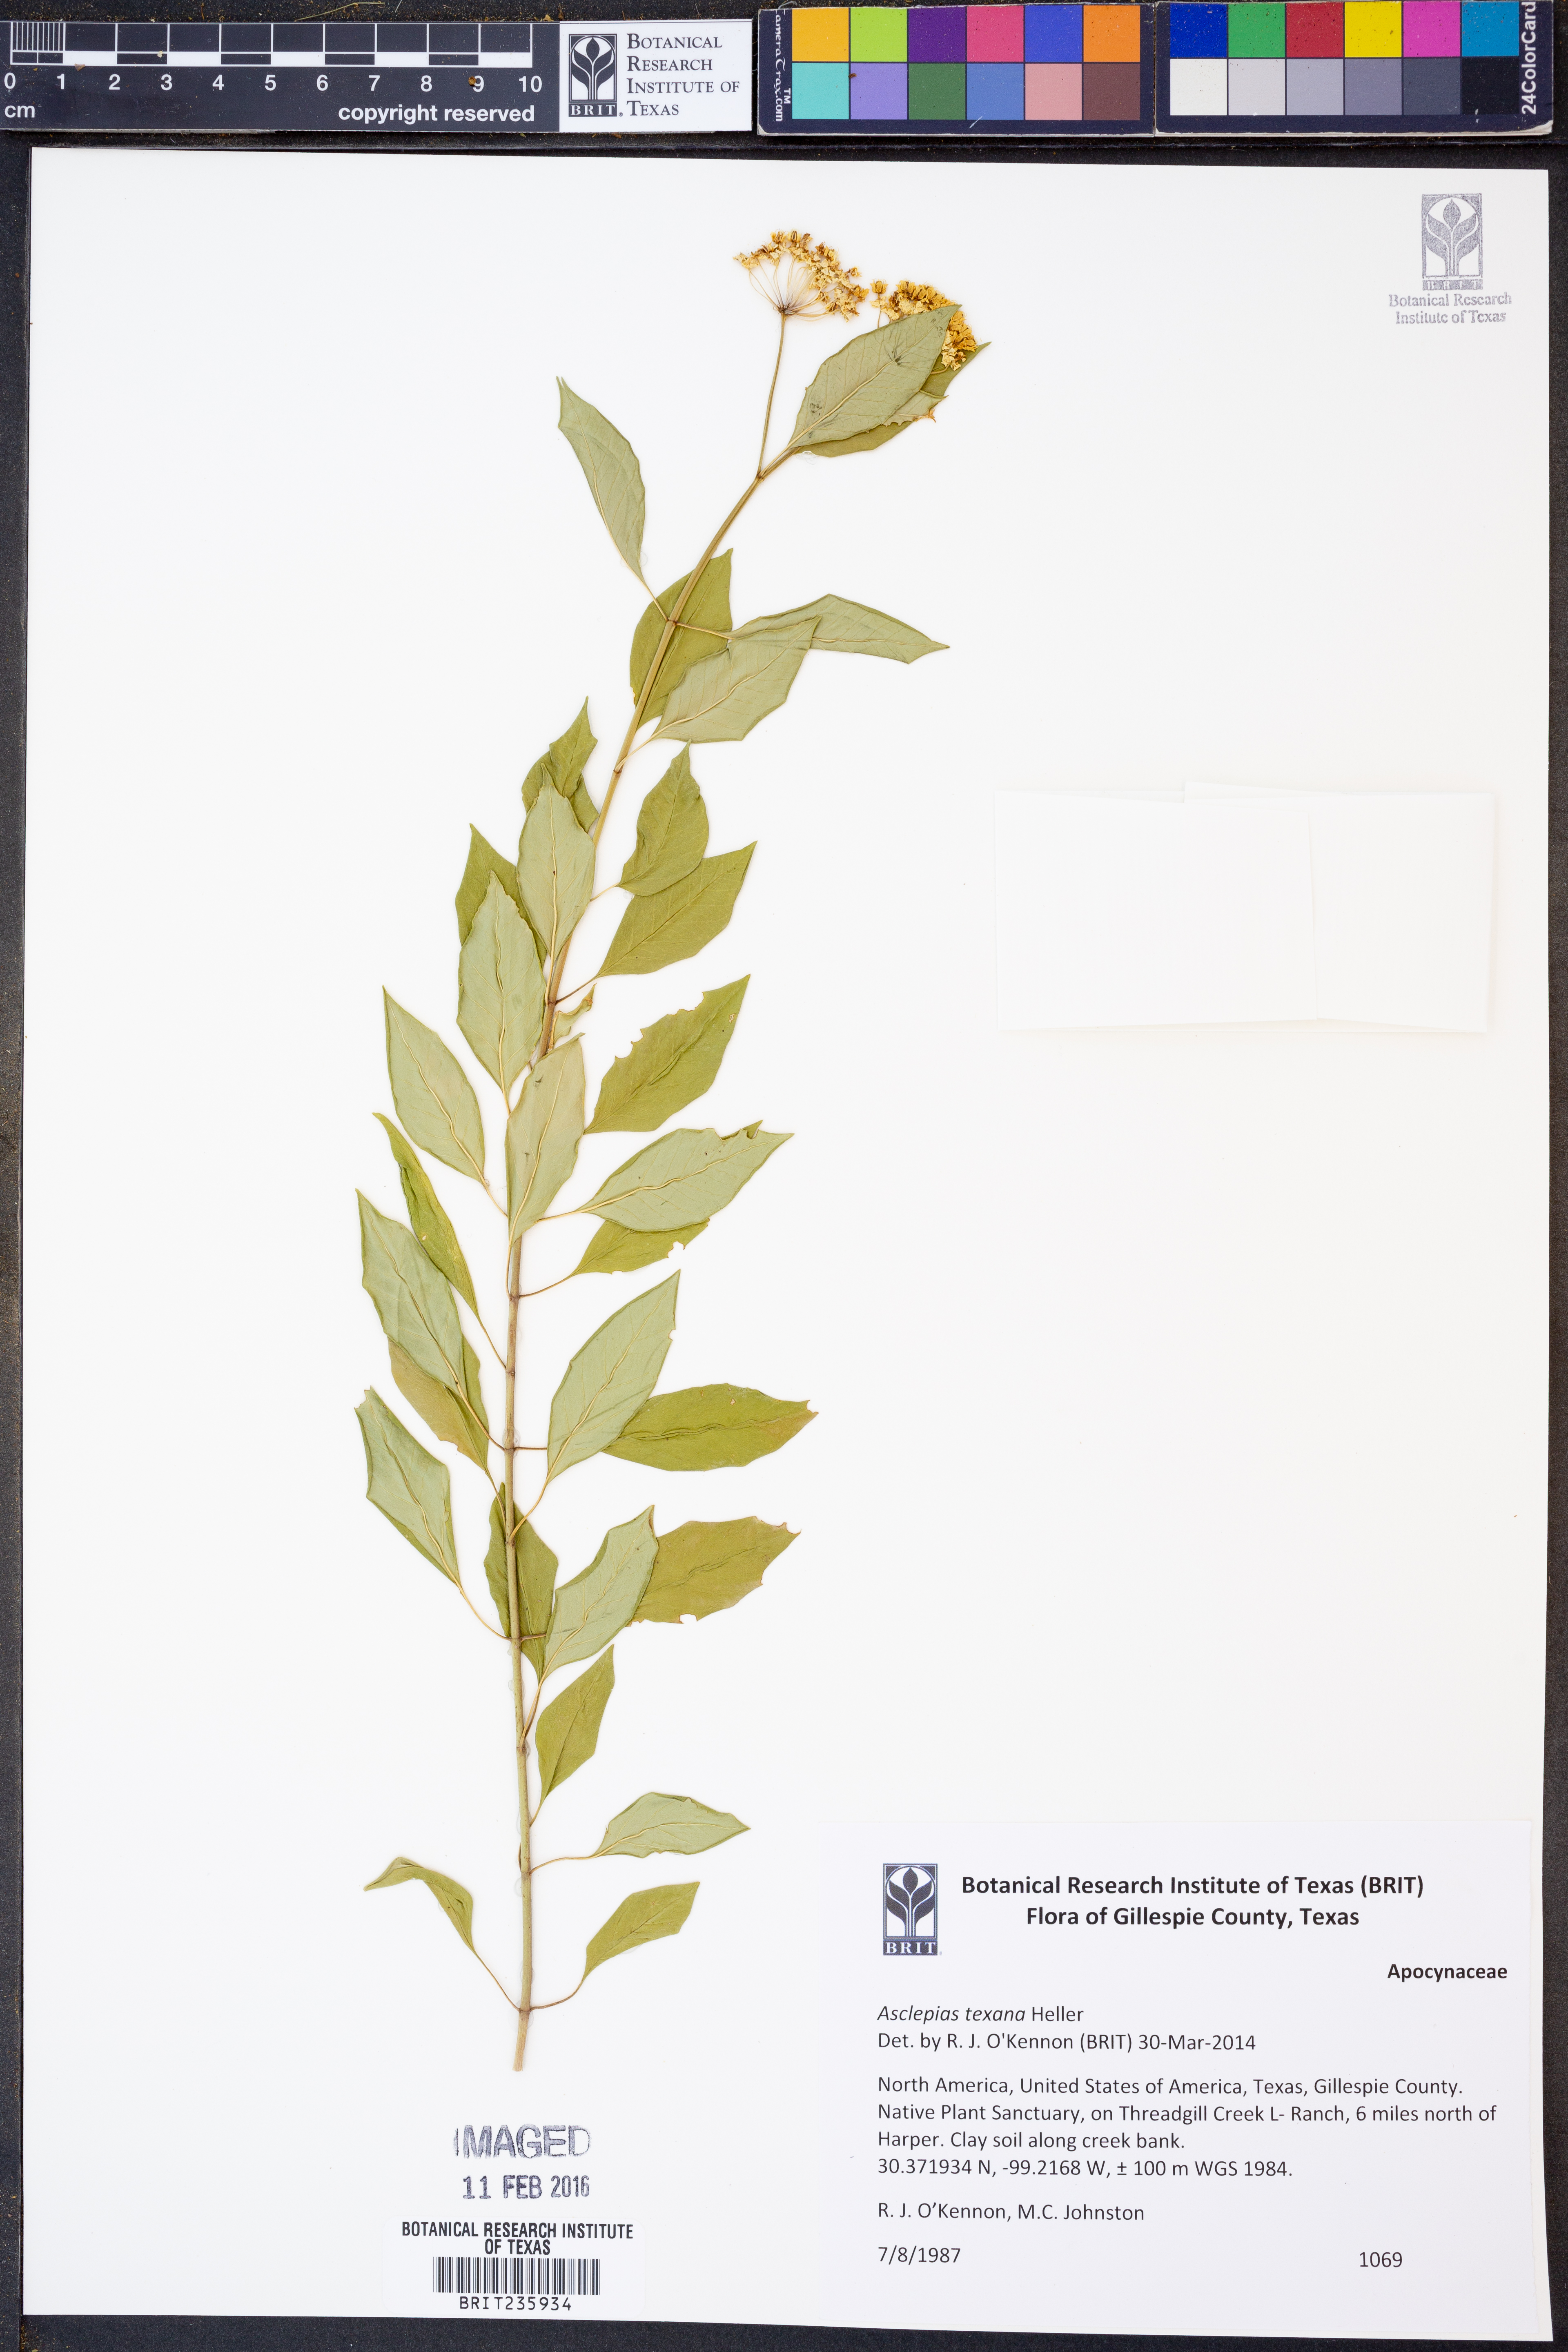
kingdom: Plantae
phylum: Tracheophyta
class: Magnoliopsida
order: Gentianales
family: Apocynaceae
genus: Asclepias
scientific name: Asclepias texana
